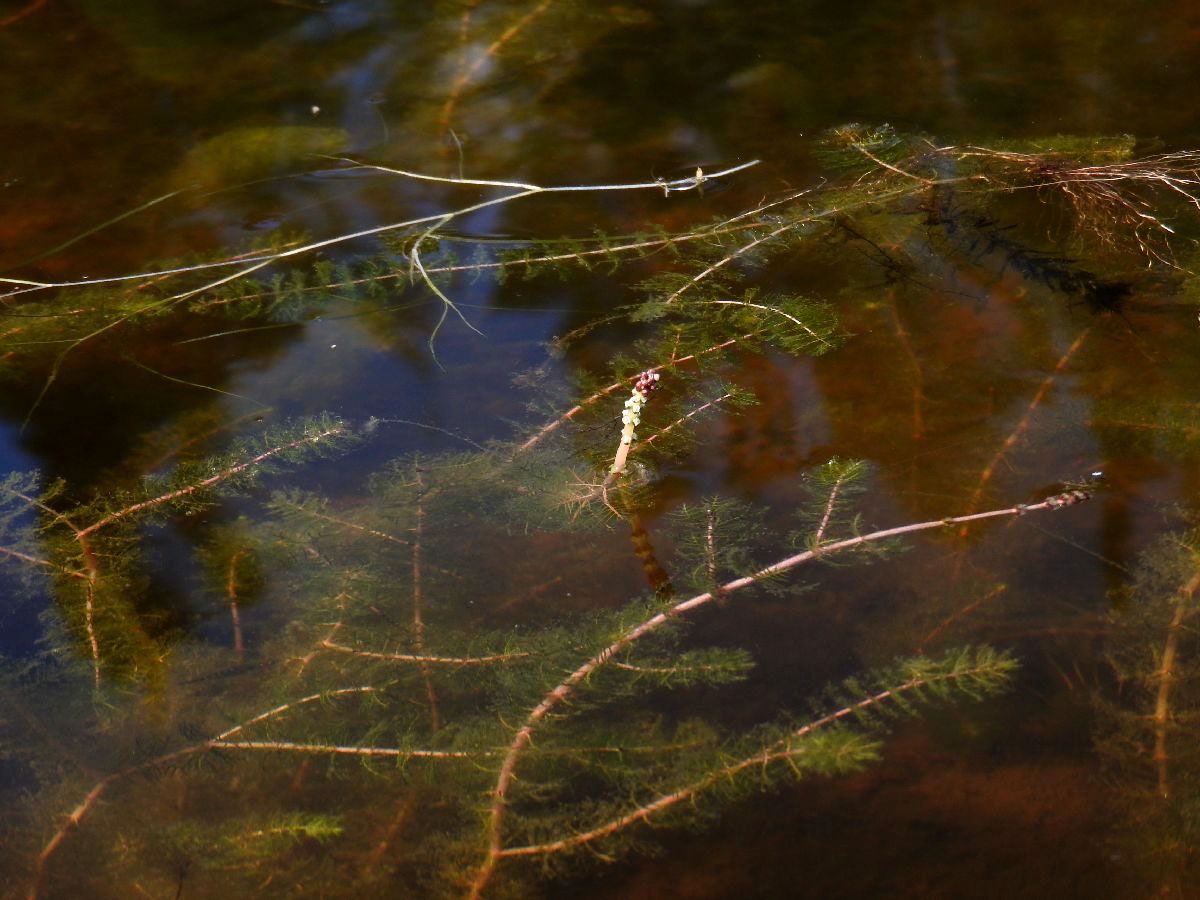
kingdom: Plantae
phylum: Tracheophyta
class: Magnoliopsida
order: Saxifragales
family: Haloragaceae
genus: Myriophyllum
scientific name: Myriophyllum sibiricum
